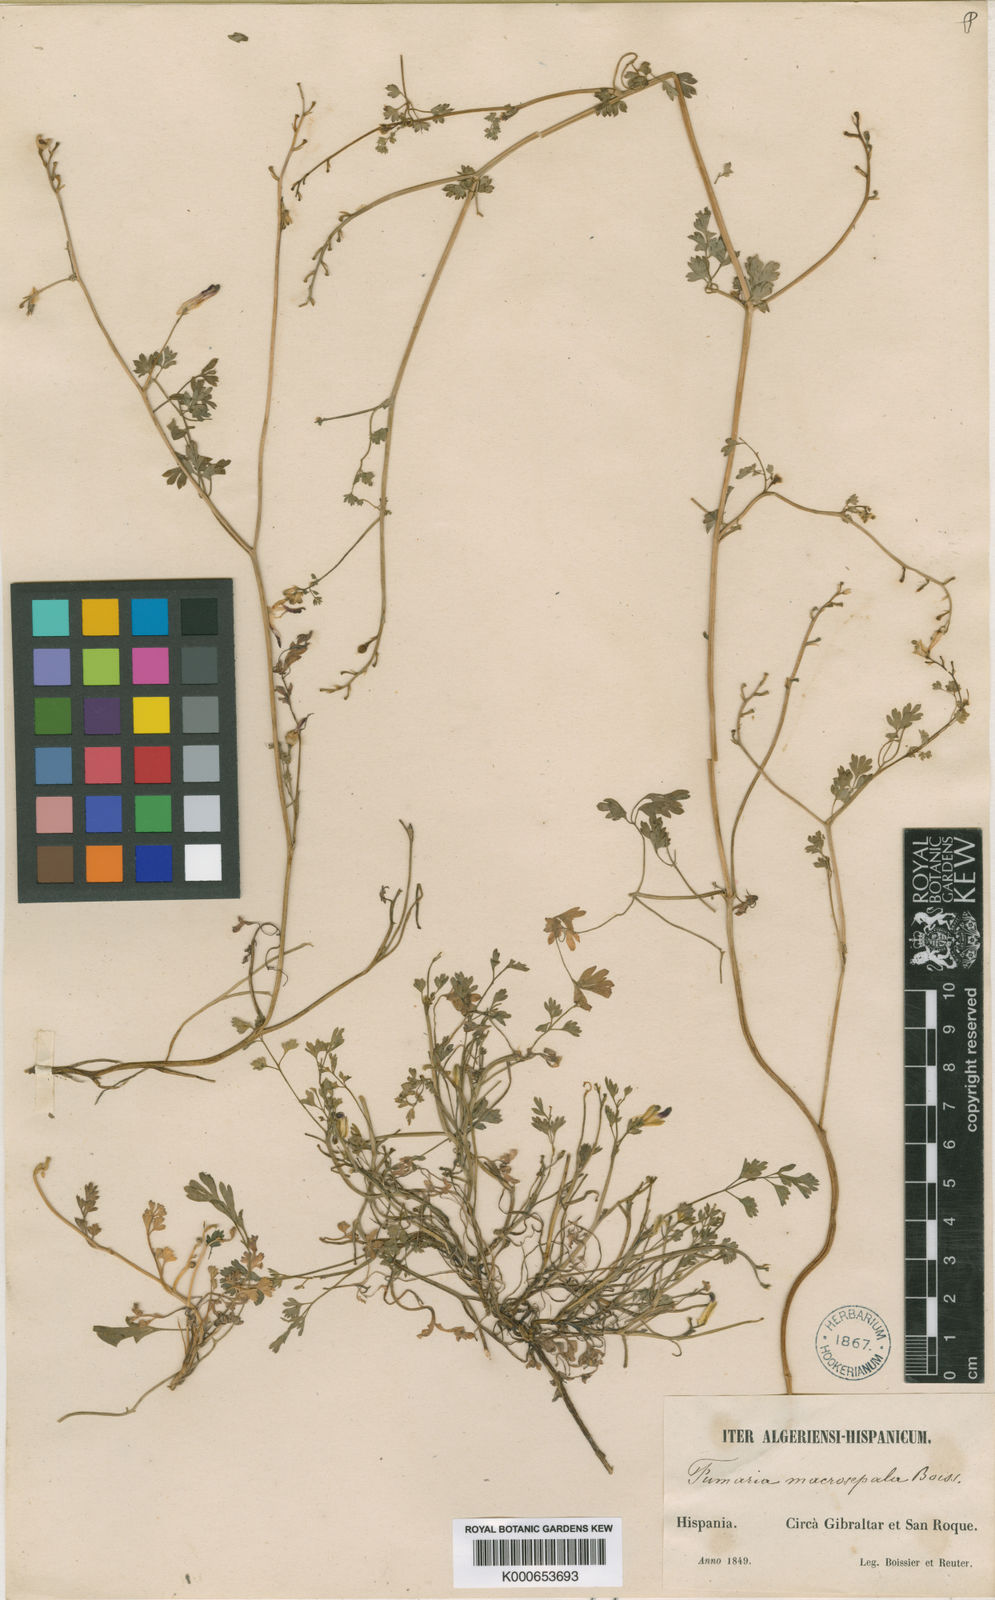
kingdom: Plantae
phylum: Tracheophyta
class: Magnoliopsida
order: Ranunculales
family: Papaveraceae
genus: Fumaria
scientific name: Fumaria macrosepala
